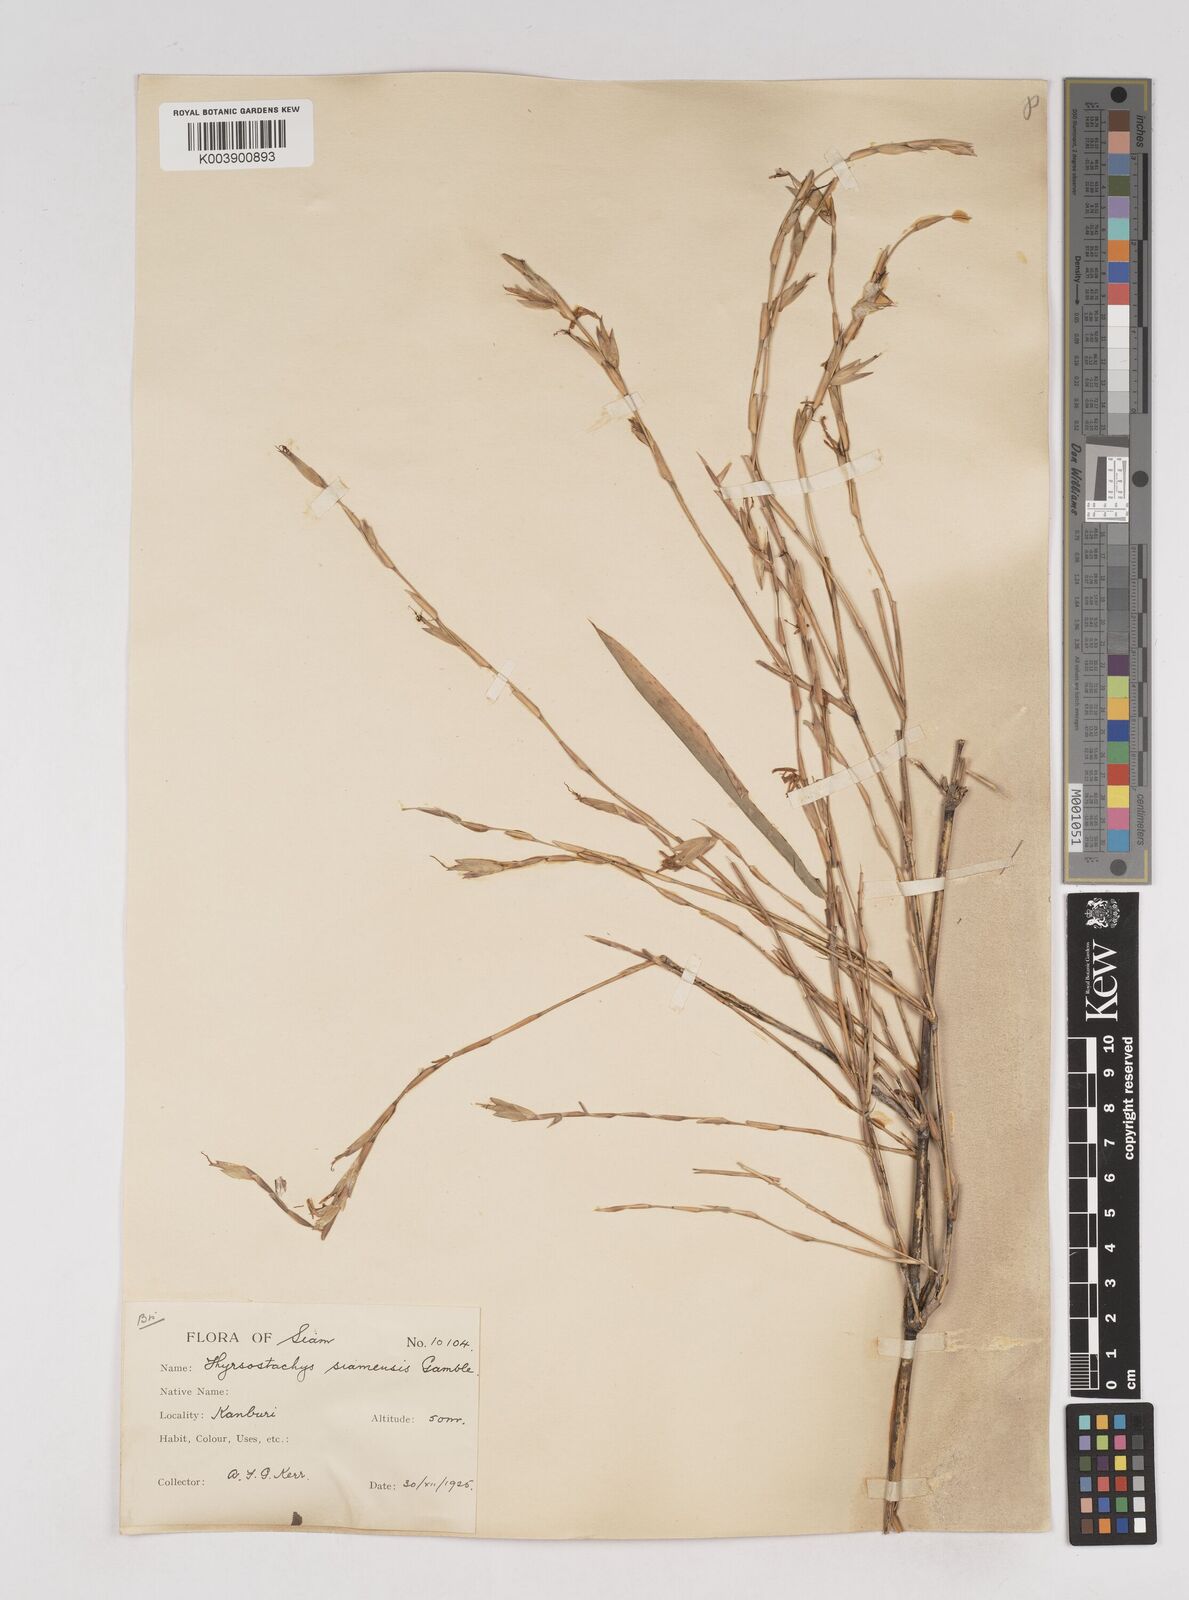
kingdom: Plantae
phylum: Tracheophyta
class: Liliopsida
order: Poales
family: Poaceae
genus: Thyrsostachys
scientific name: Thyrsostachys siamensis
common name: Thailand bamboo
